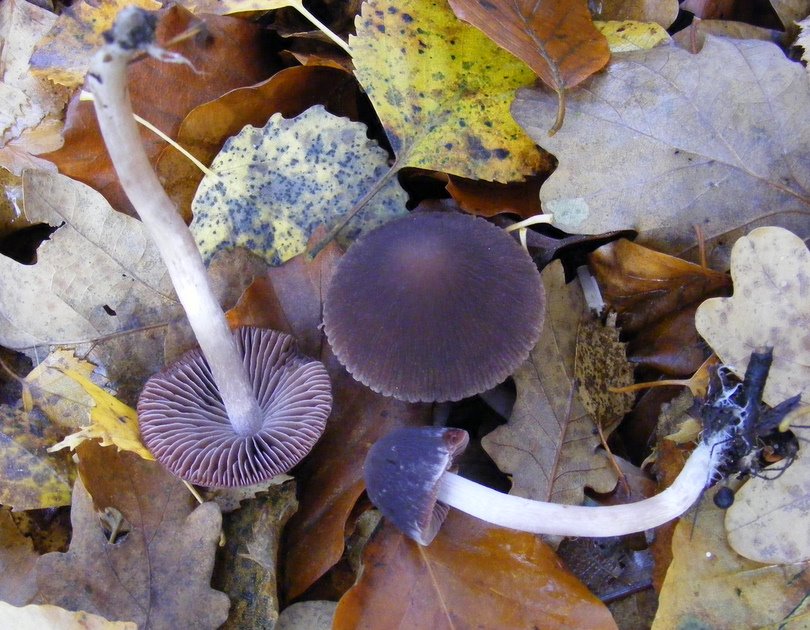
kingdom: Fungi
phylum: Basidiomycota
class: Agaricomycetes
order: Agaricales
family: Psathyrellaceae
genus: Psathyrella
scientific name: Psathyrella bipellis
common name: vinrød mørkhat
